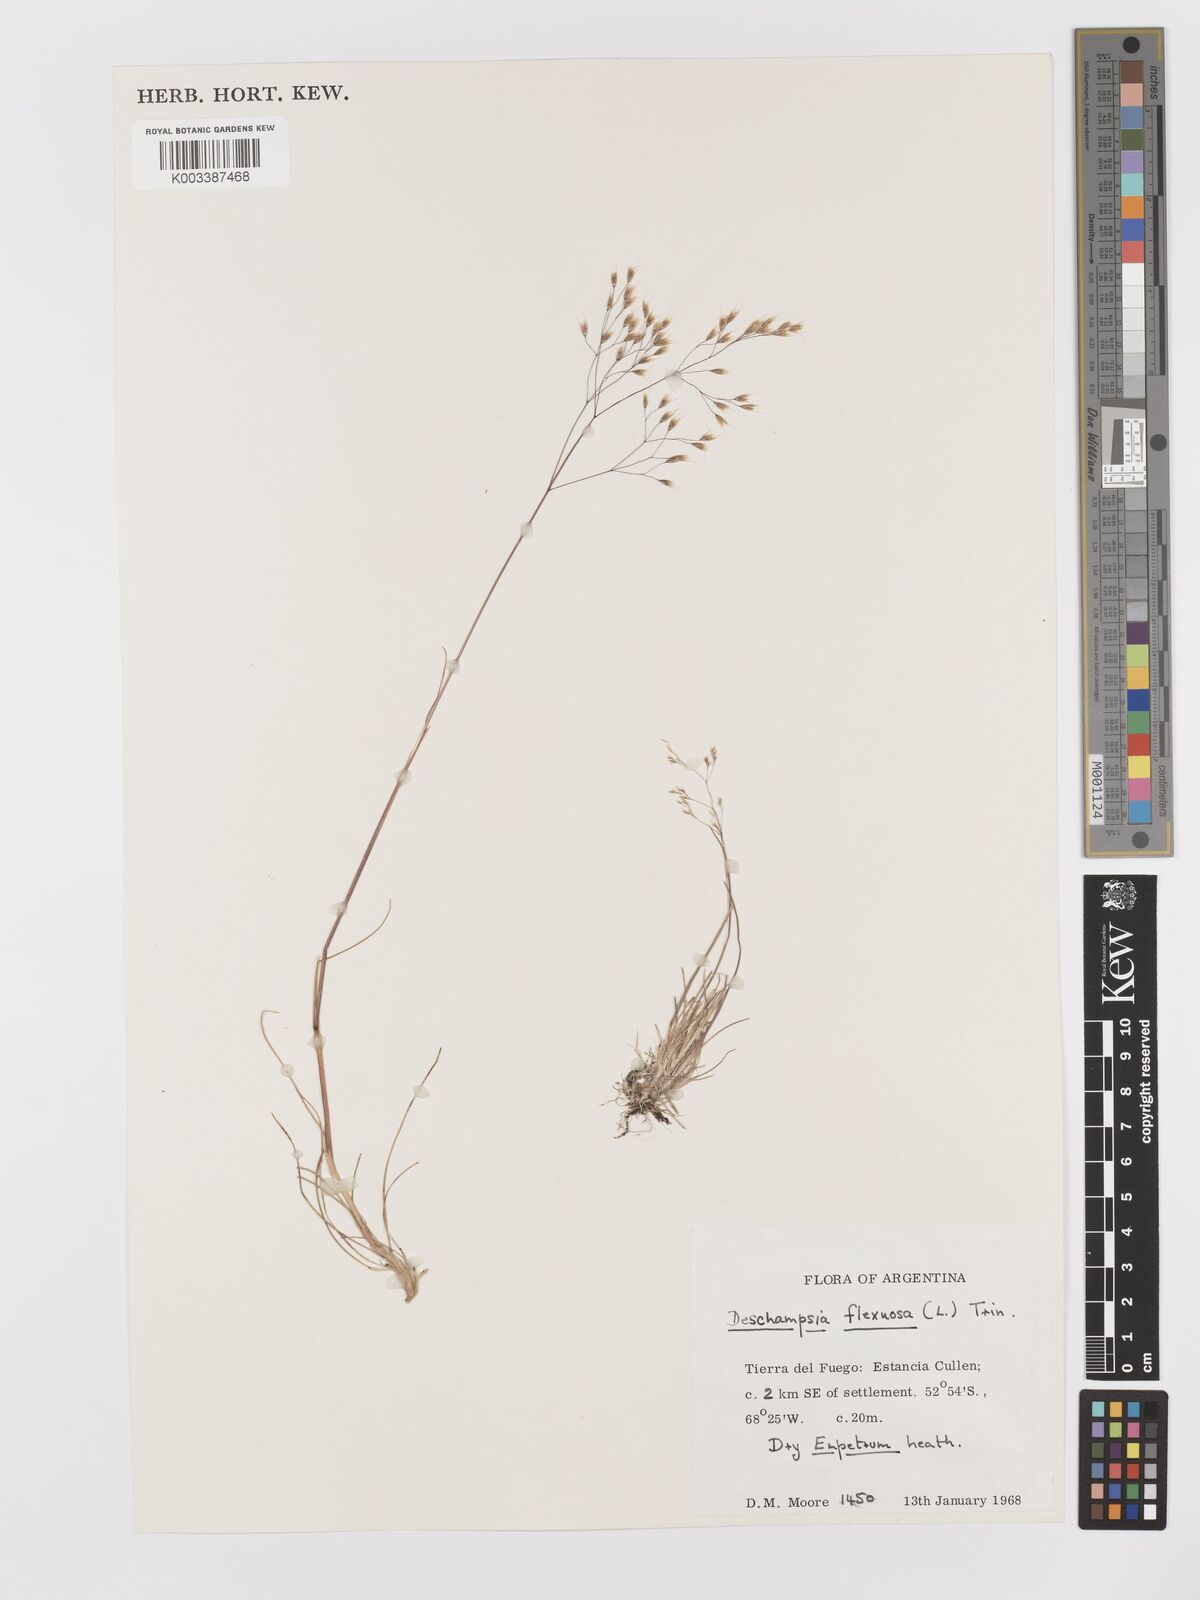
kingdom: Plantae
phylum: Tracheophyta
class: Liliopsida
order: Poales
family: Poaceae
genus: Avenella
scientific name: Avenella flexuosa
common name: Wavy hairgrass
